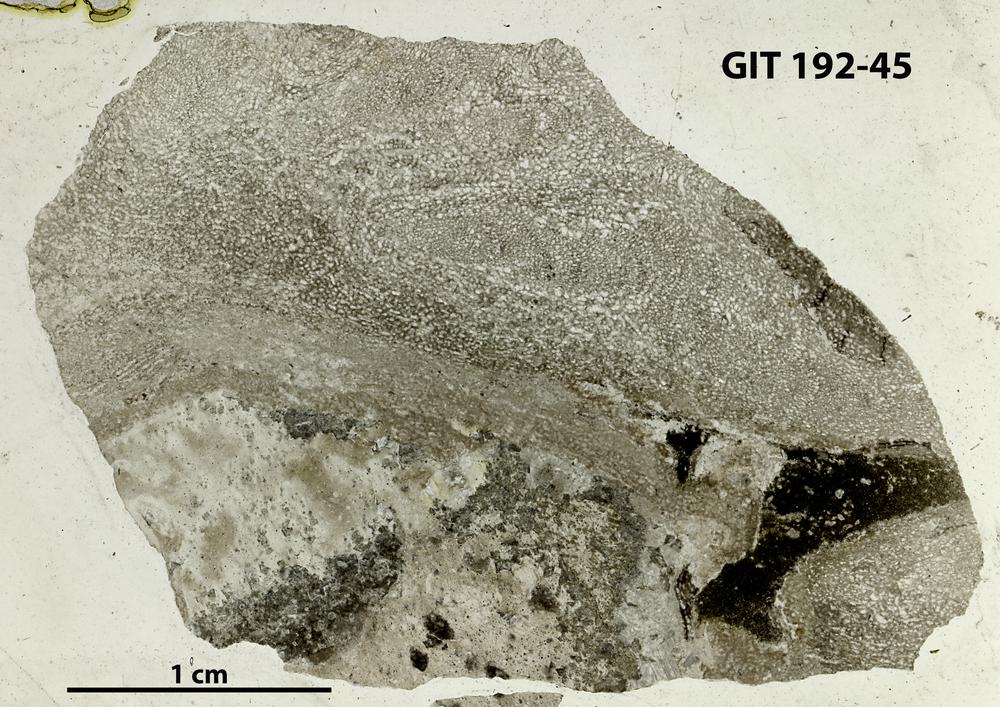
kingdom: Animalia
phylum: Porifera
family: Pseudolabechiidae
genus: Vikingia
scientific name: Vikingia
